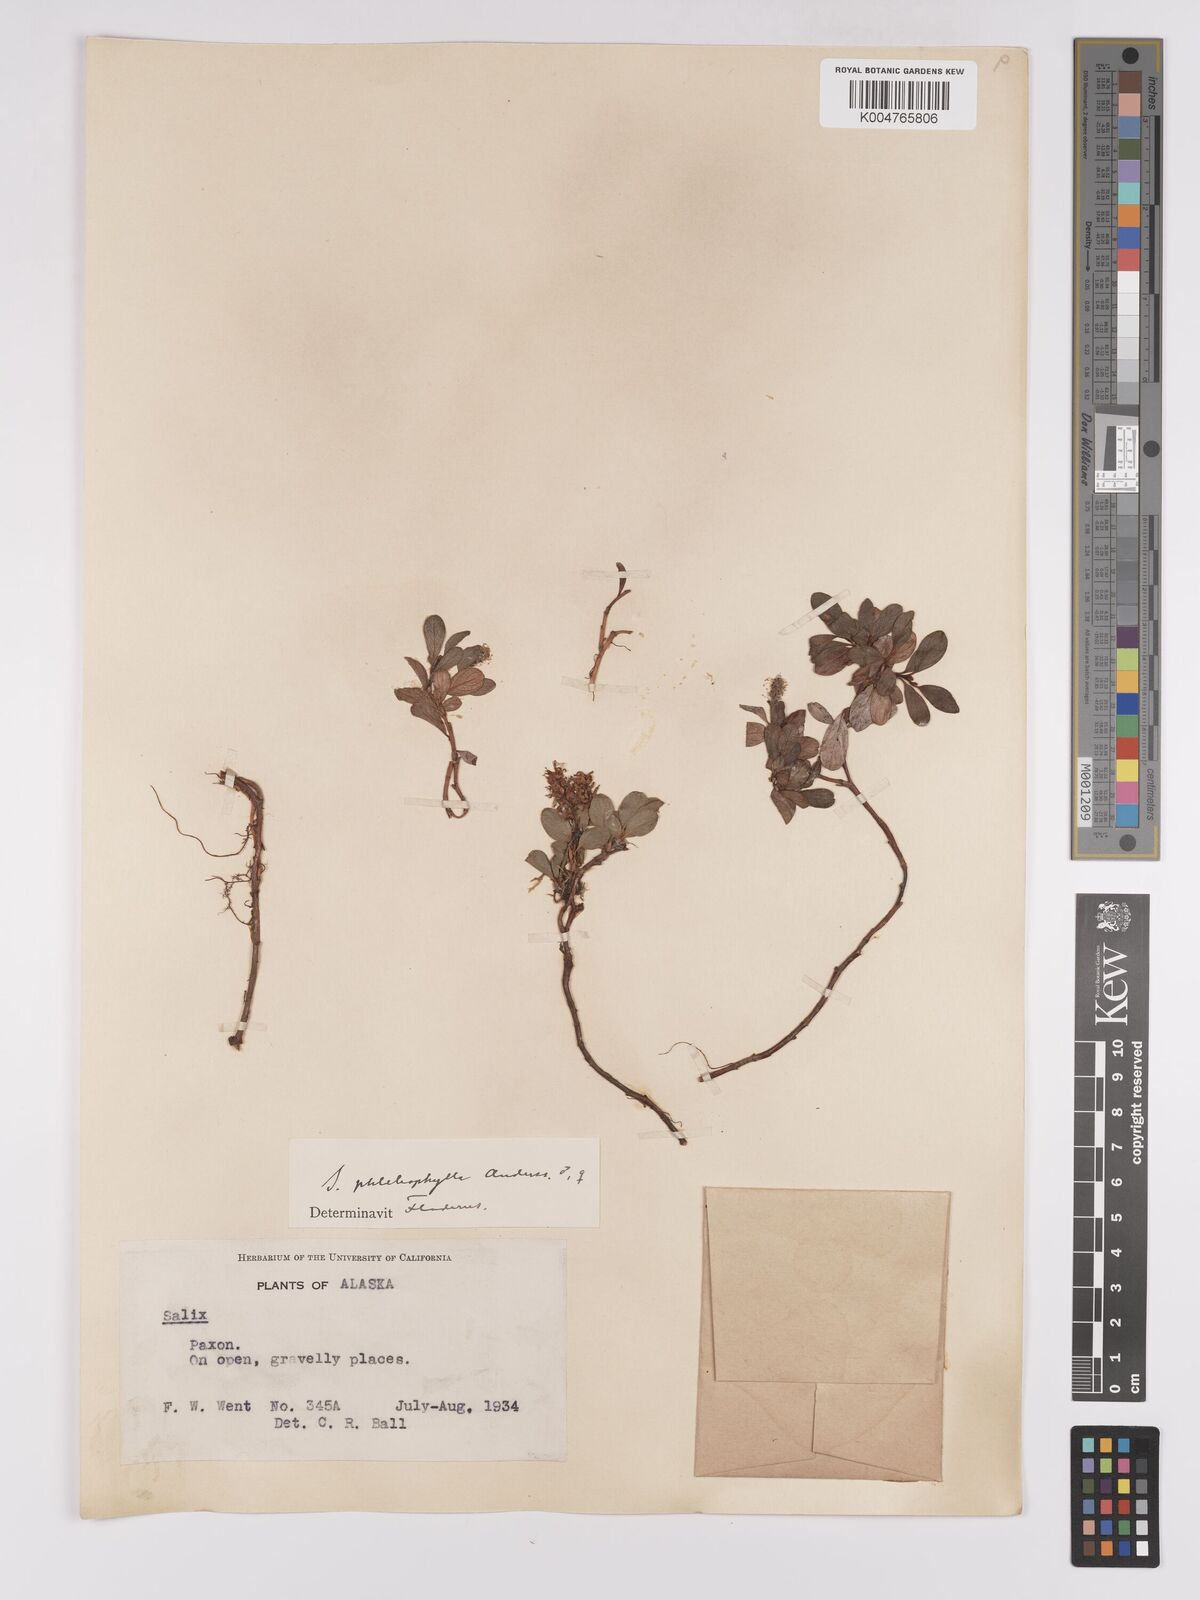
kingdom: Plantae
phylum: Tracheophyta
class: Magnoliopsida
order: Malpighiales
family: Salicaceae
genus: Salix
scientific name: Salix
